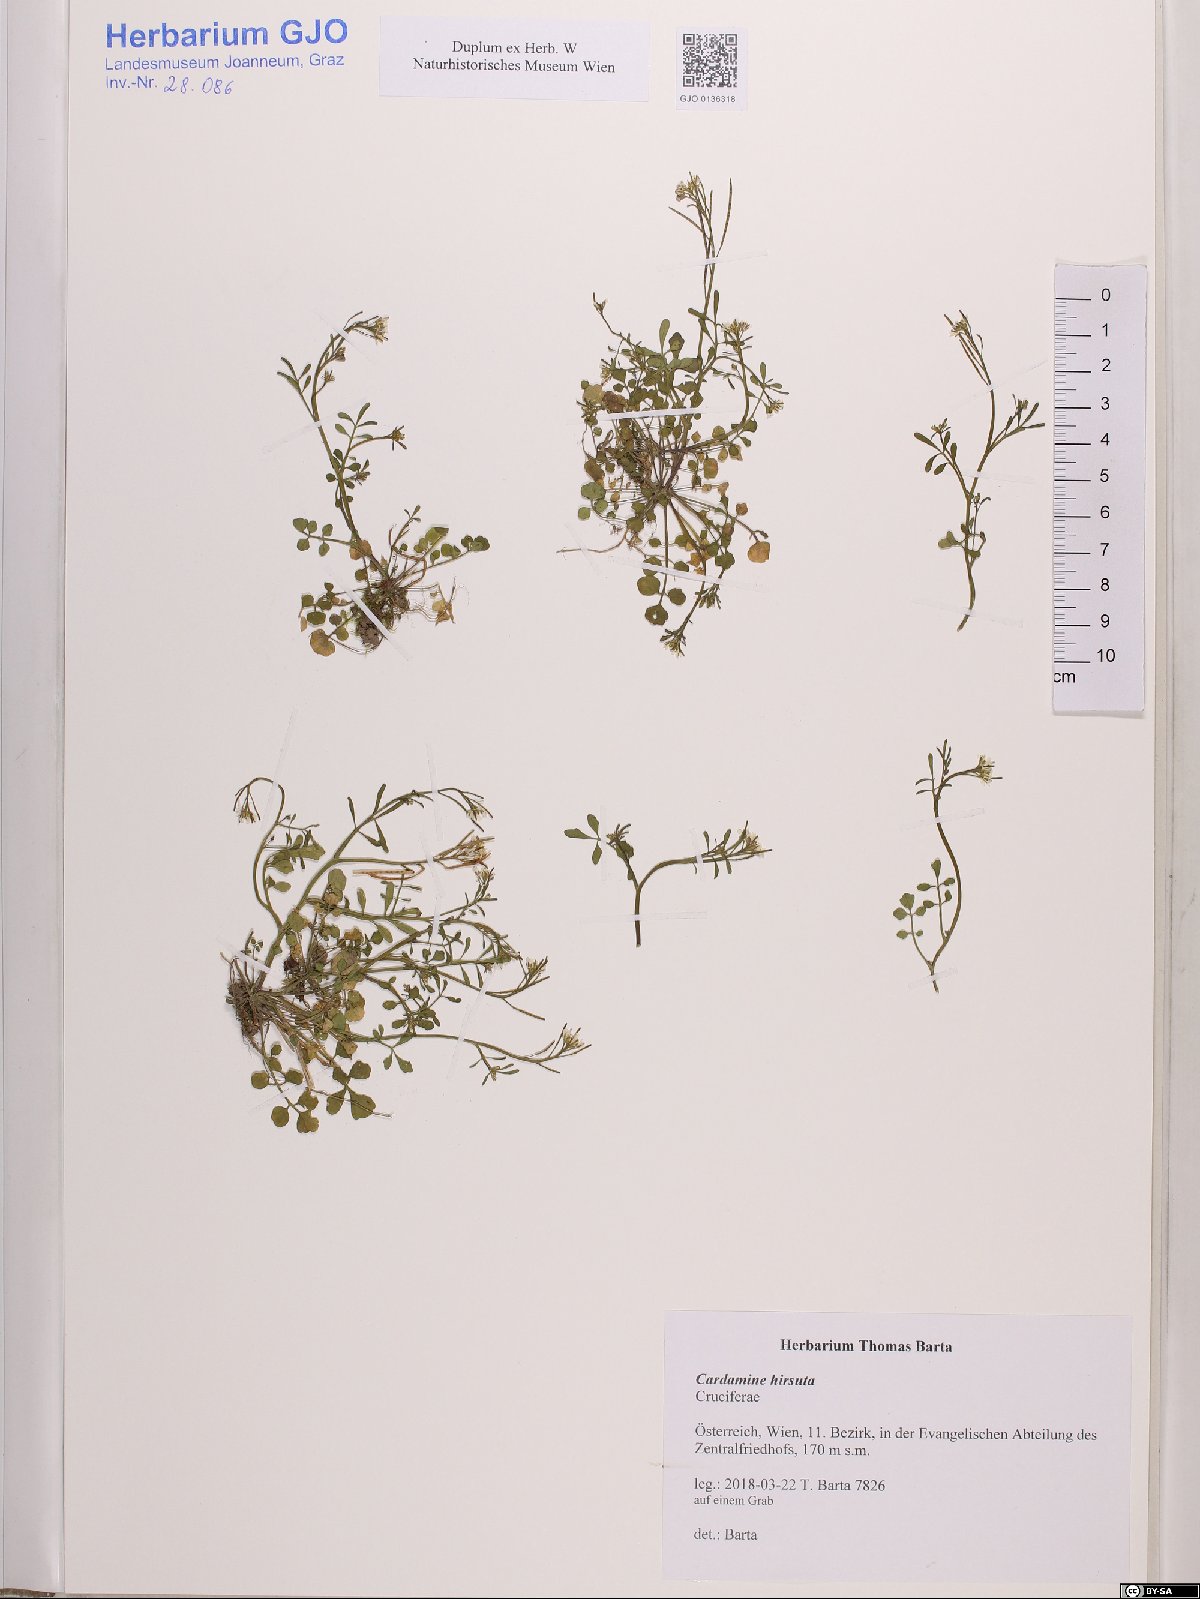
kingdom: Plantae
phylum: Tracheophyta
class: Magnoliopsida
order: Brassicales
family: Brassicaceae
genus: Cardamine
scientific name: Cardamine hirsuta
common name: Hairy bittercress
